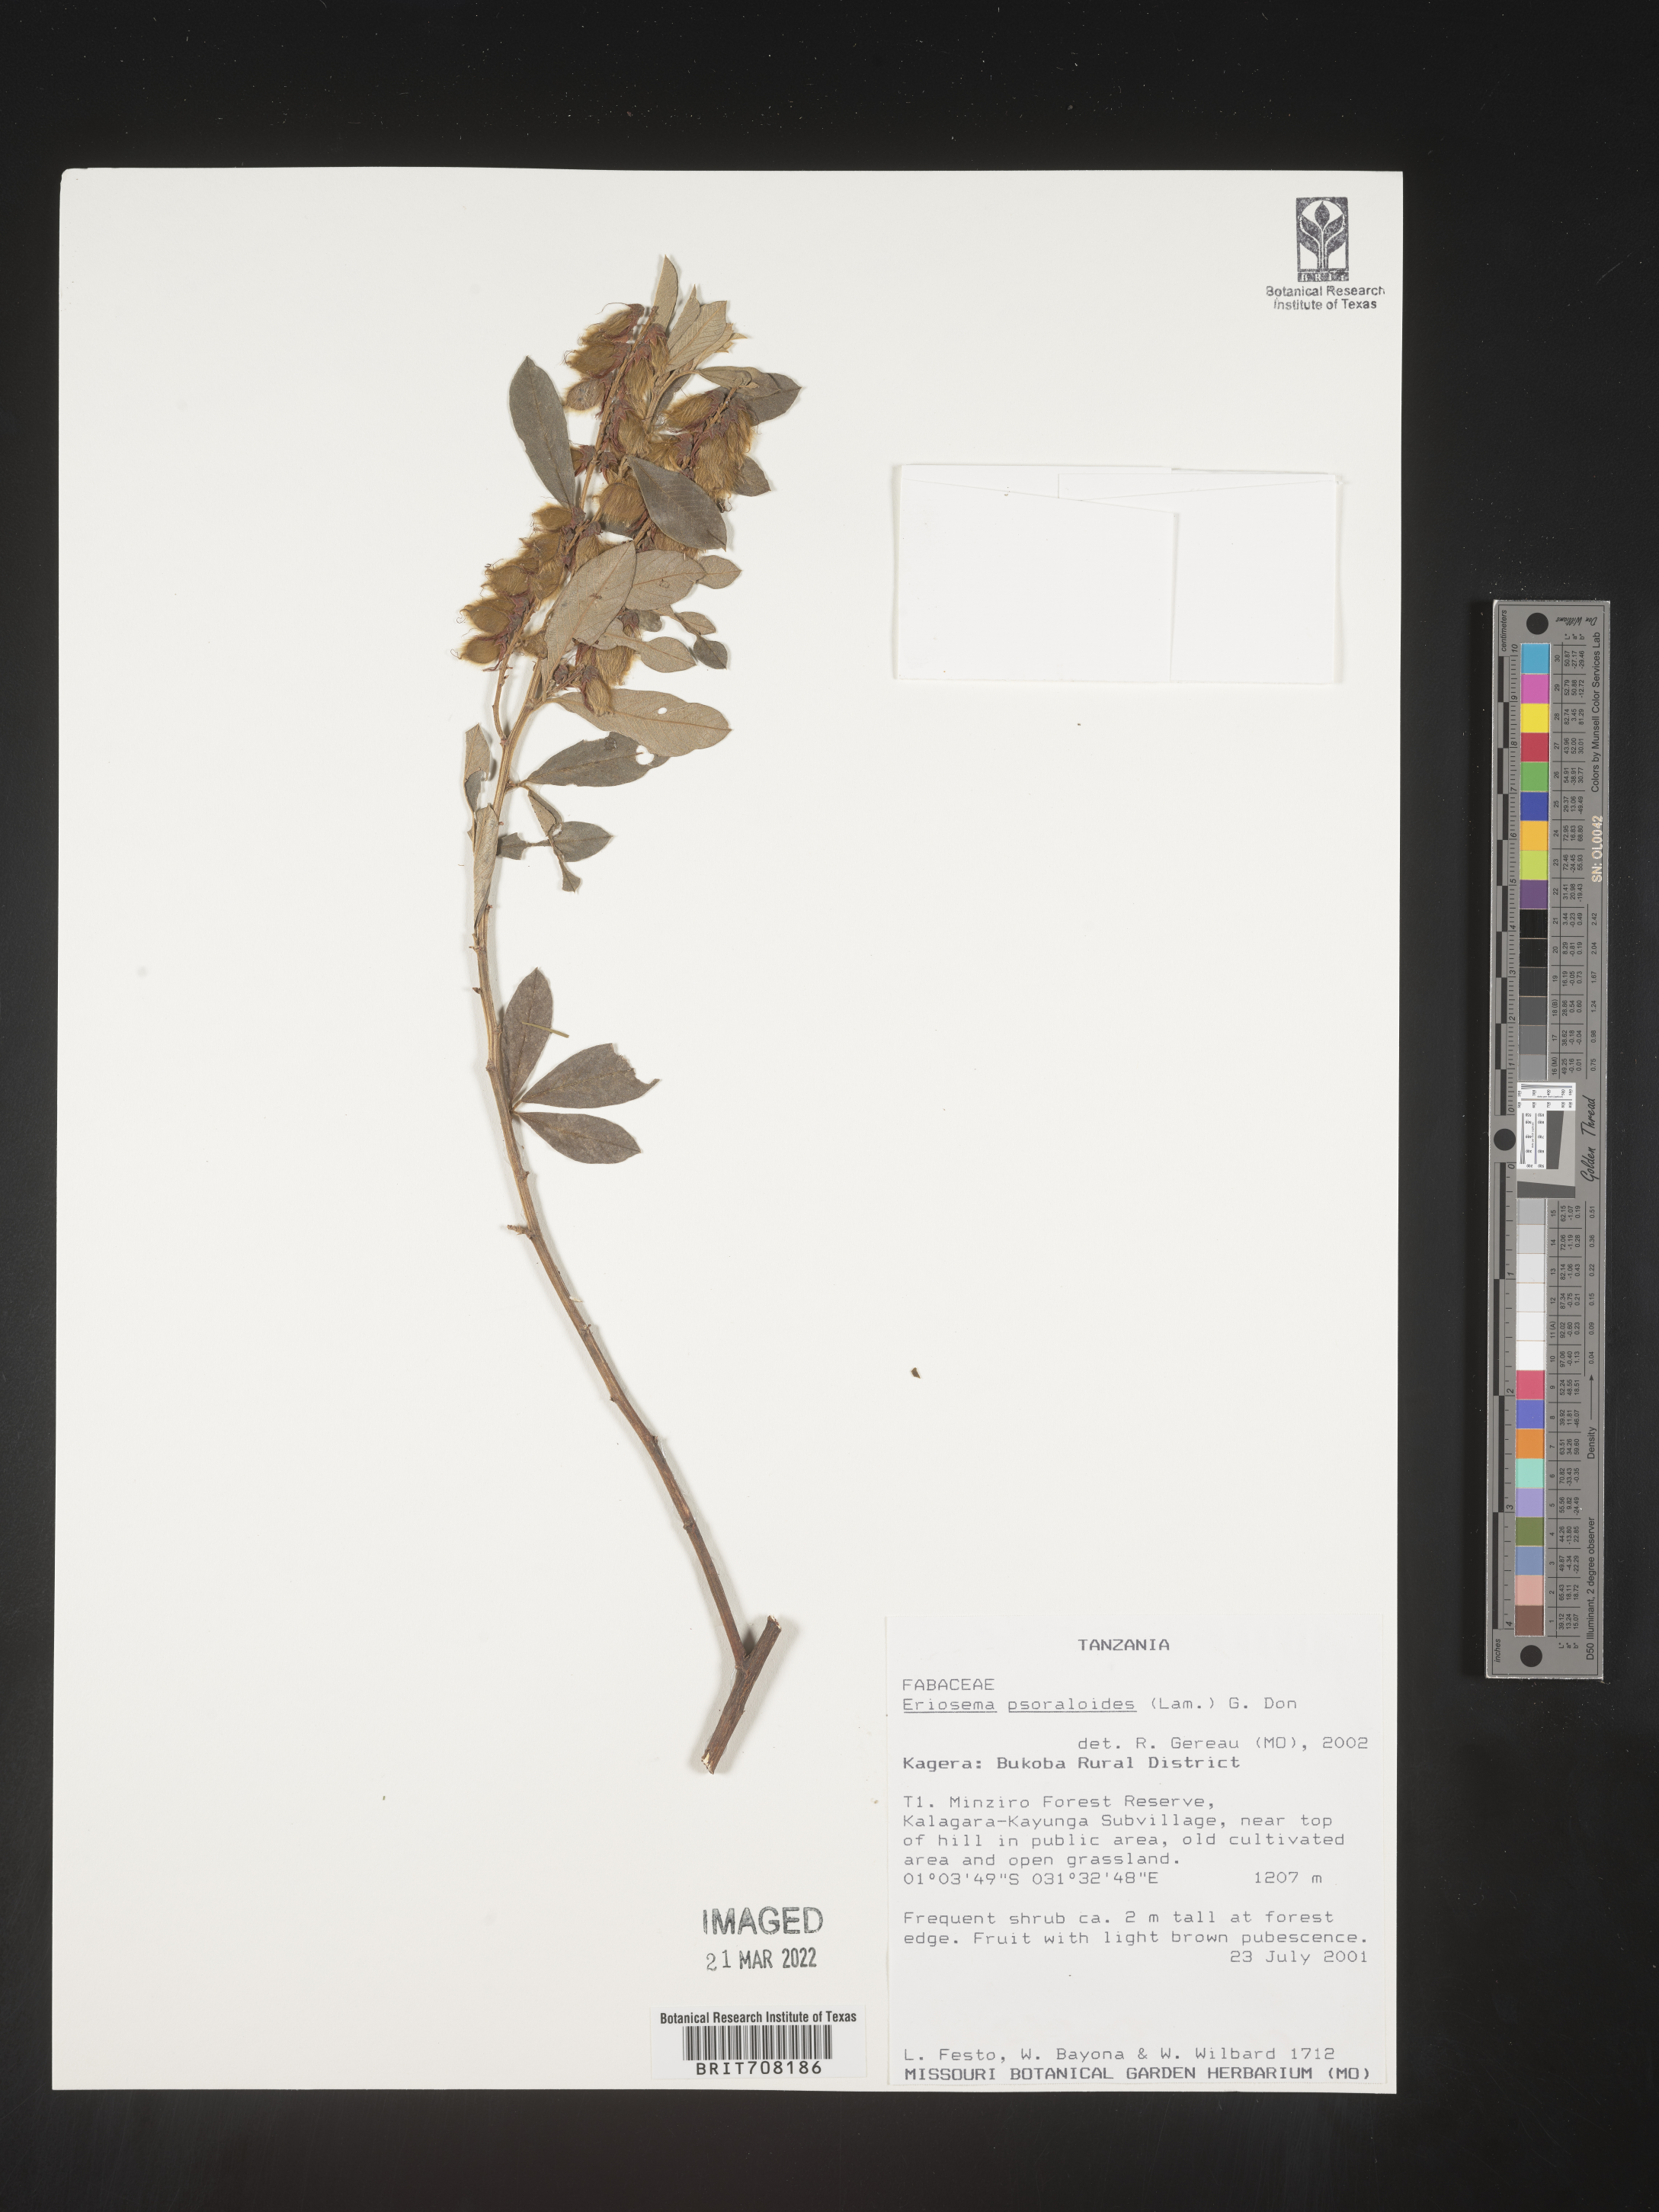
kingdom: Plantae
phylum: Tracheophyta
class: Magnoliopsida
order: Fabales
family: Fabaceae
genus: Eriosema
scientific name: Eriosema
